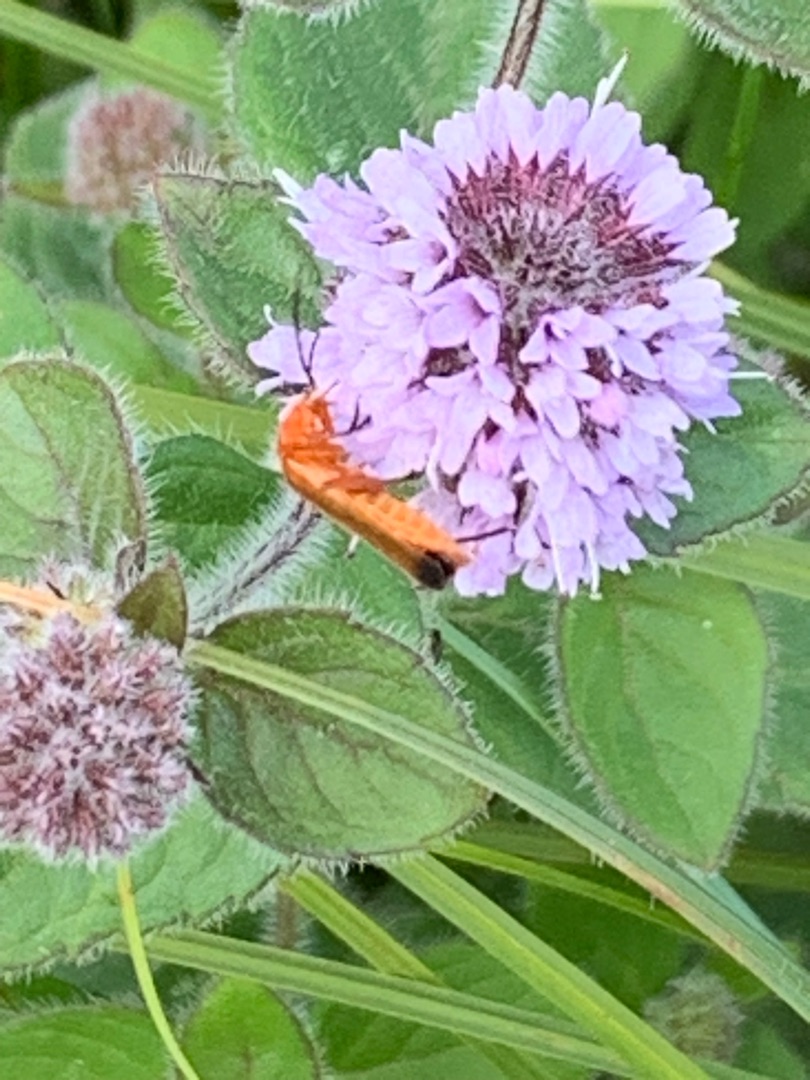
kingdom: Animalia
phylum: Arthropoda
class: Insecta
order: Coleoptera
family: Cantharidae
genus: Rhagonycha
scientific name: Rhagonycha fulva
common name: Præstebille
